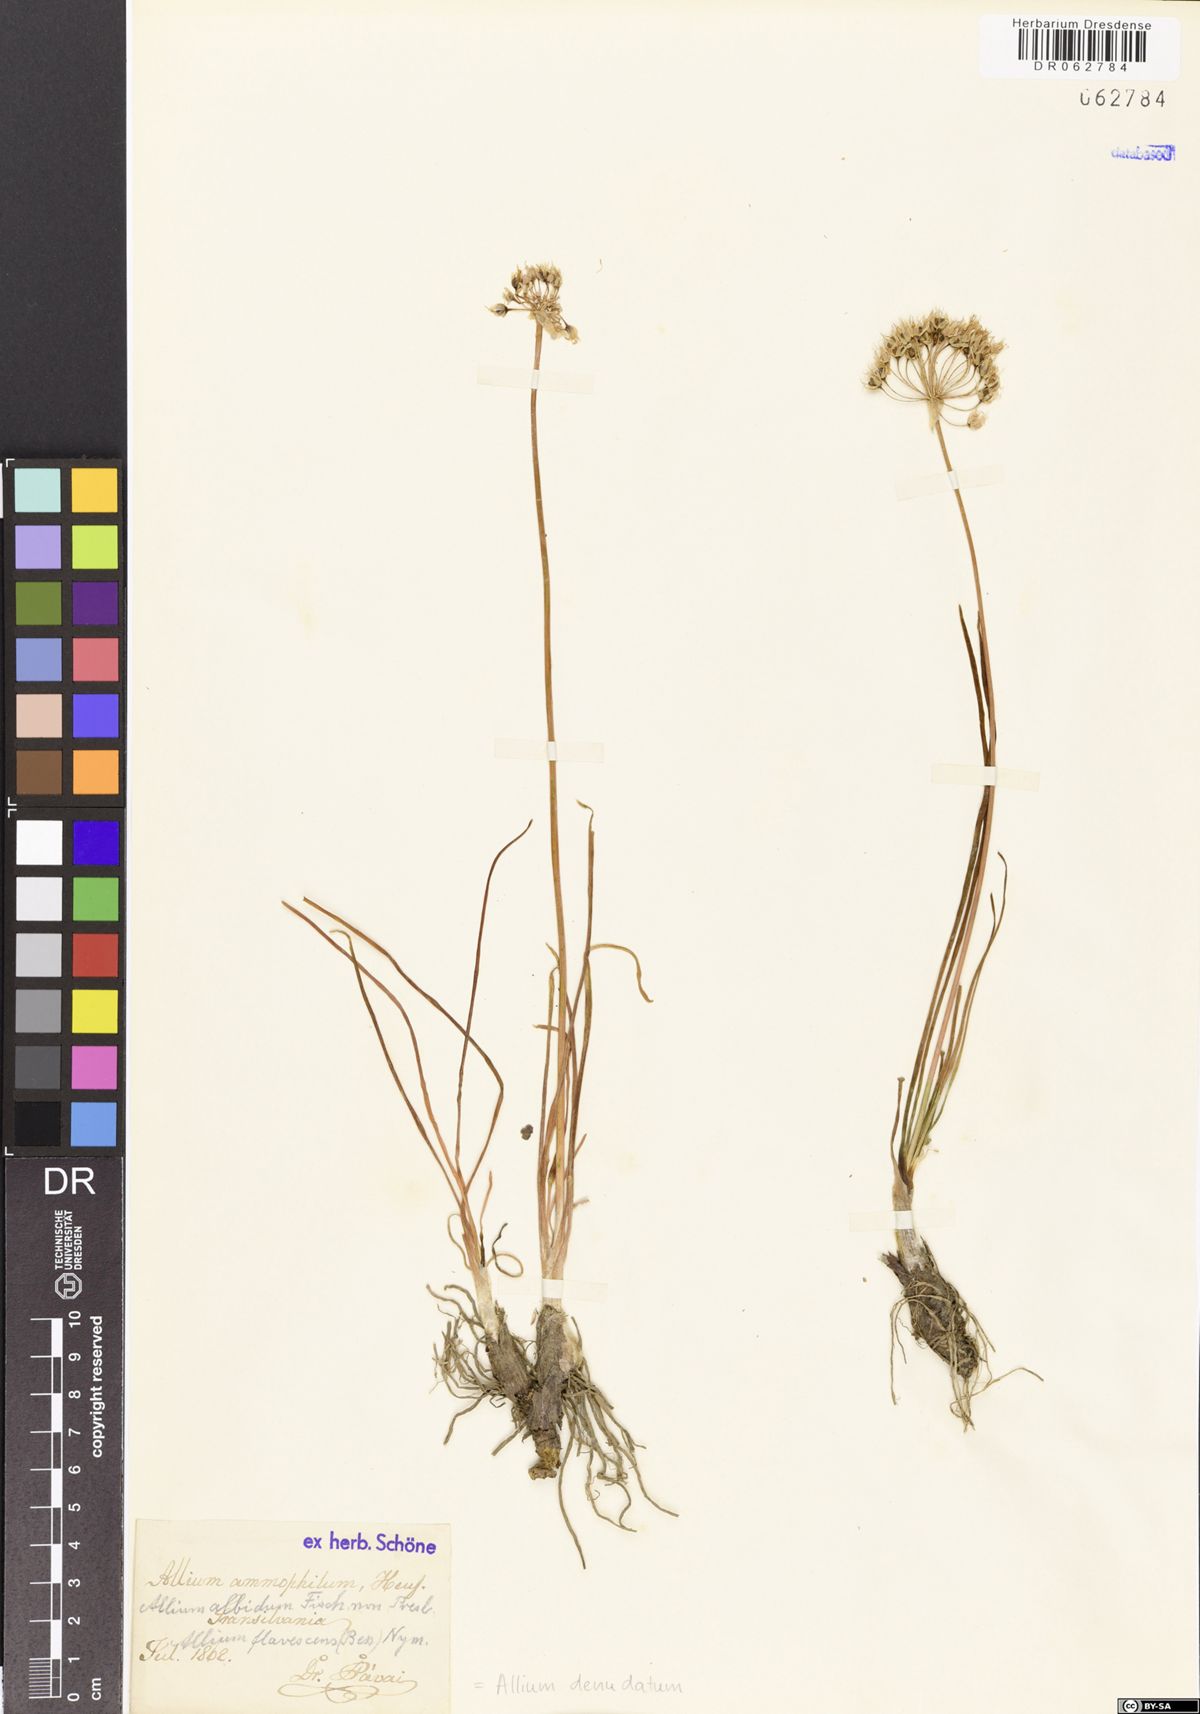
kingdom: Plantae
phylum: Tracheophyta
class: Liliopsida
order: Asparagales
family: Amaryllidaceae
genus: Allium
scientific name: Allium denudatum
